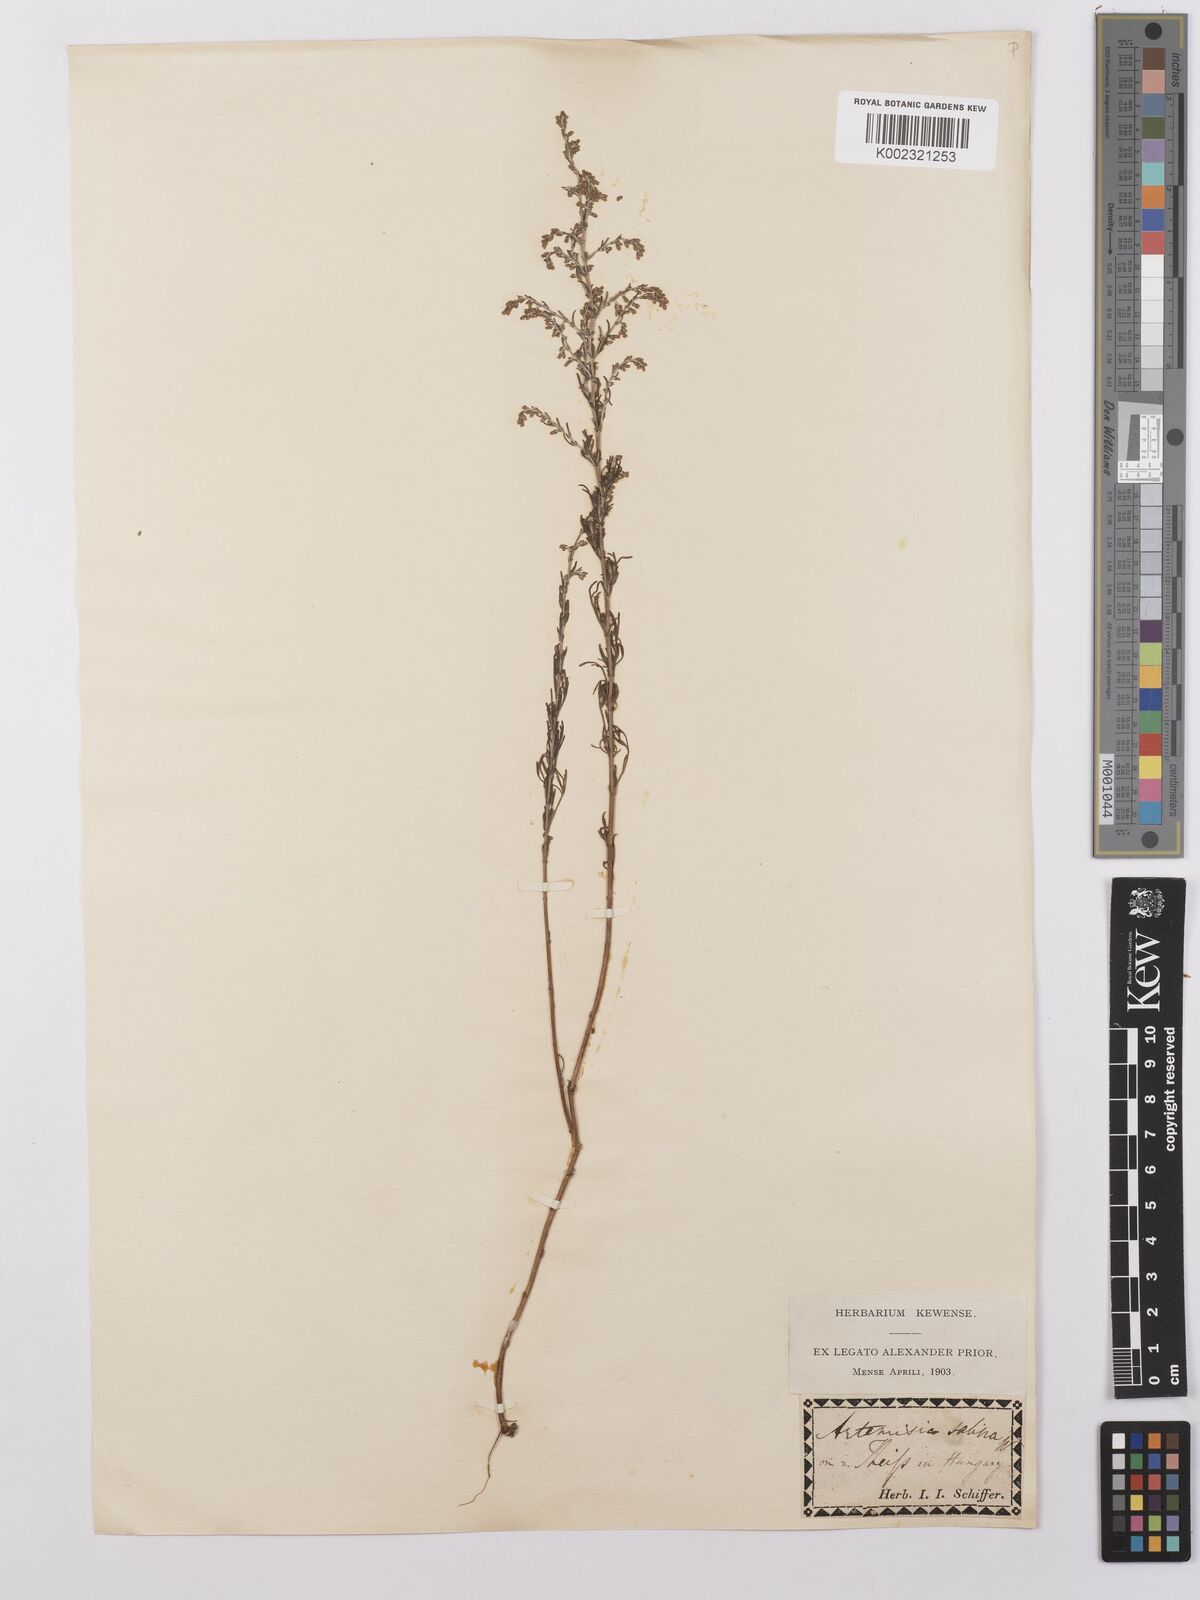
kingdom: Plantae
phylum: Tracheophyta
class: Magnoliopsida
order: Asterales
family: Asteraceae
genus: Artemisia
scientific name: Artemisia maritima
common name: Wormseed
